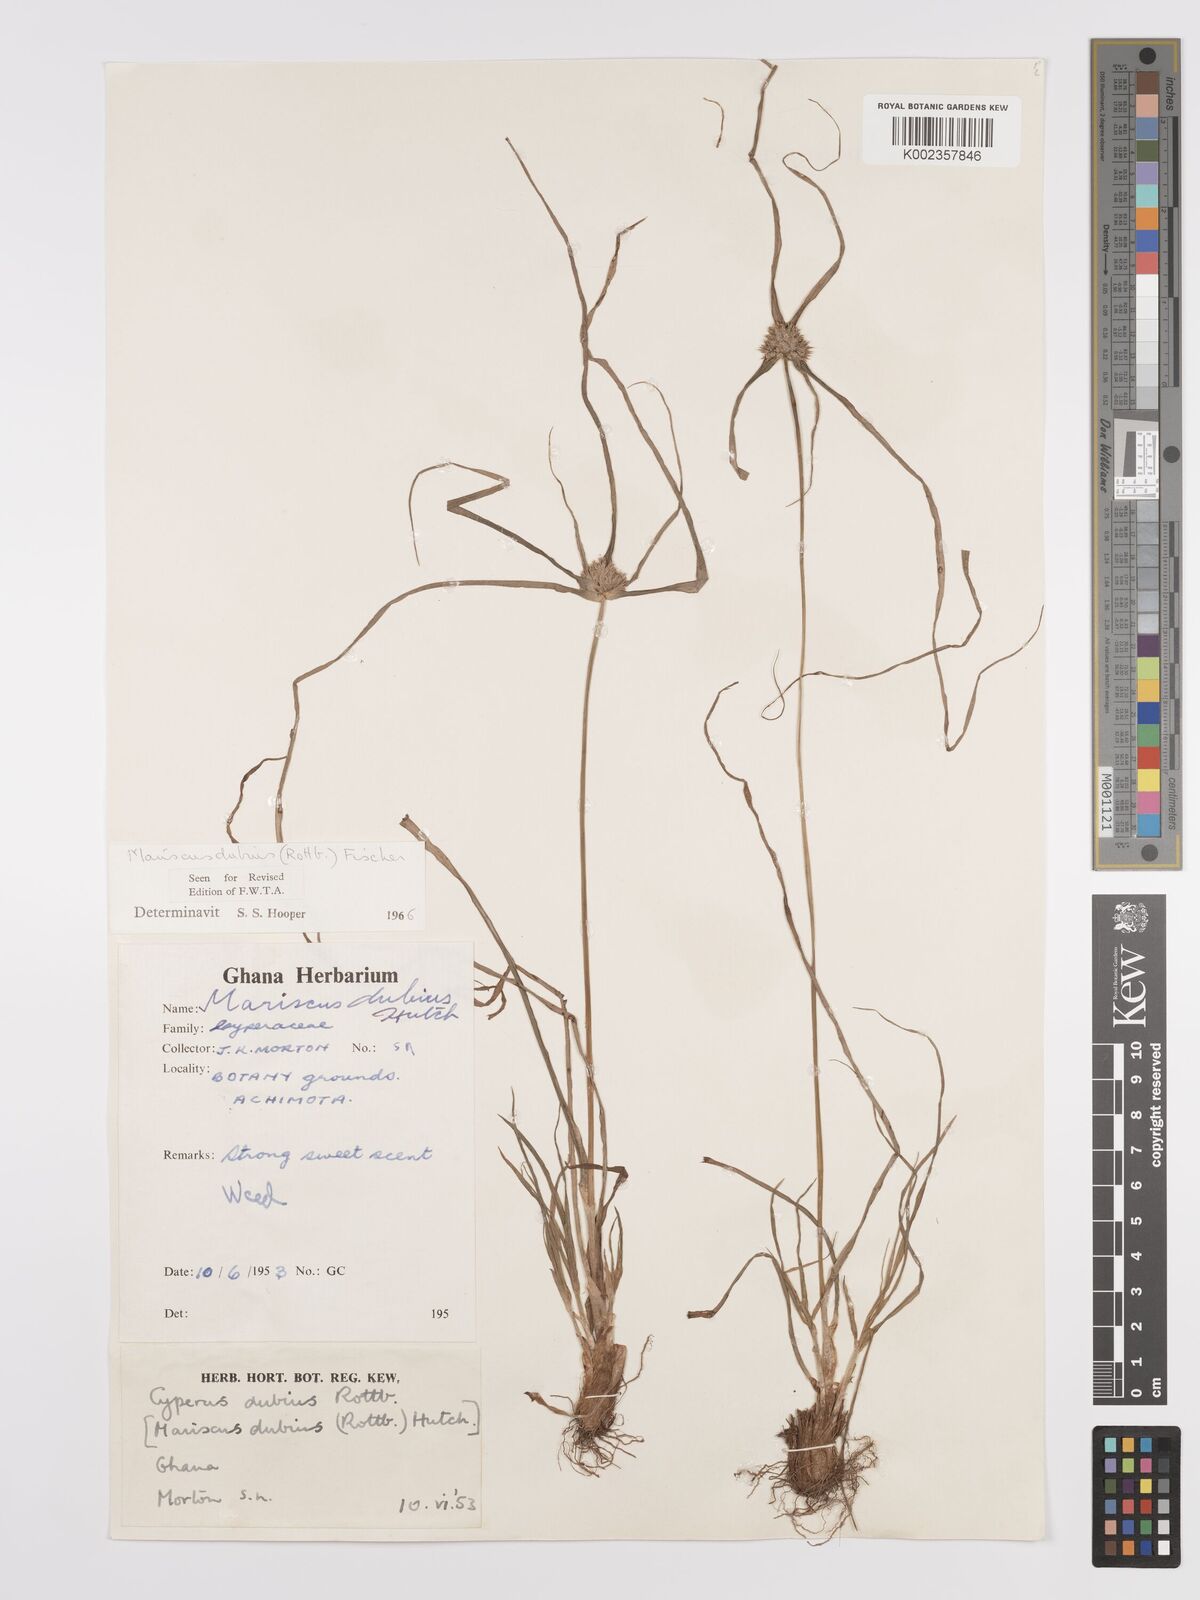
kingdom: Plantae
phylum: Tracheophyta
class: Liliopsida
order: Poales
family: Cyperaceae
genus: Cyperus
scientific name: Cyperus dubius
